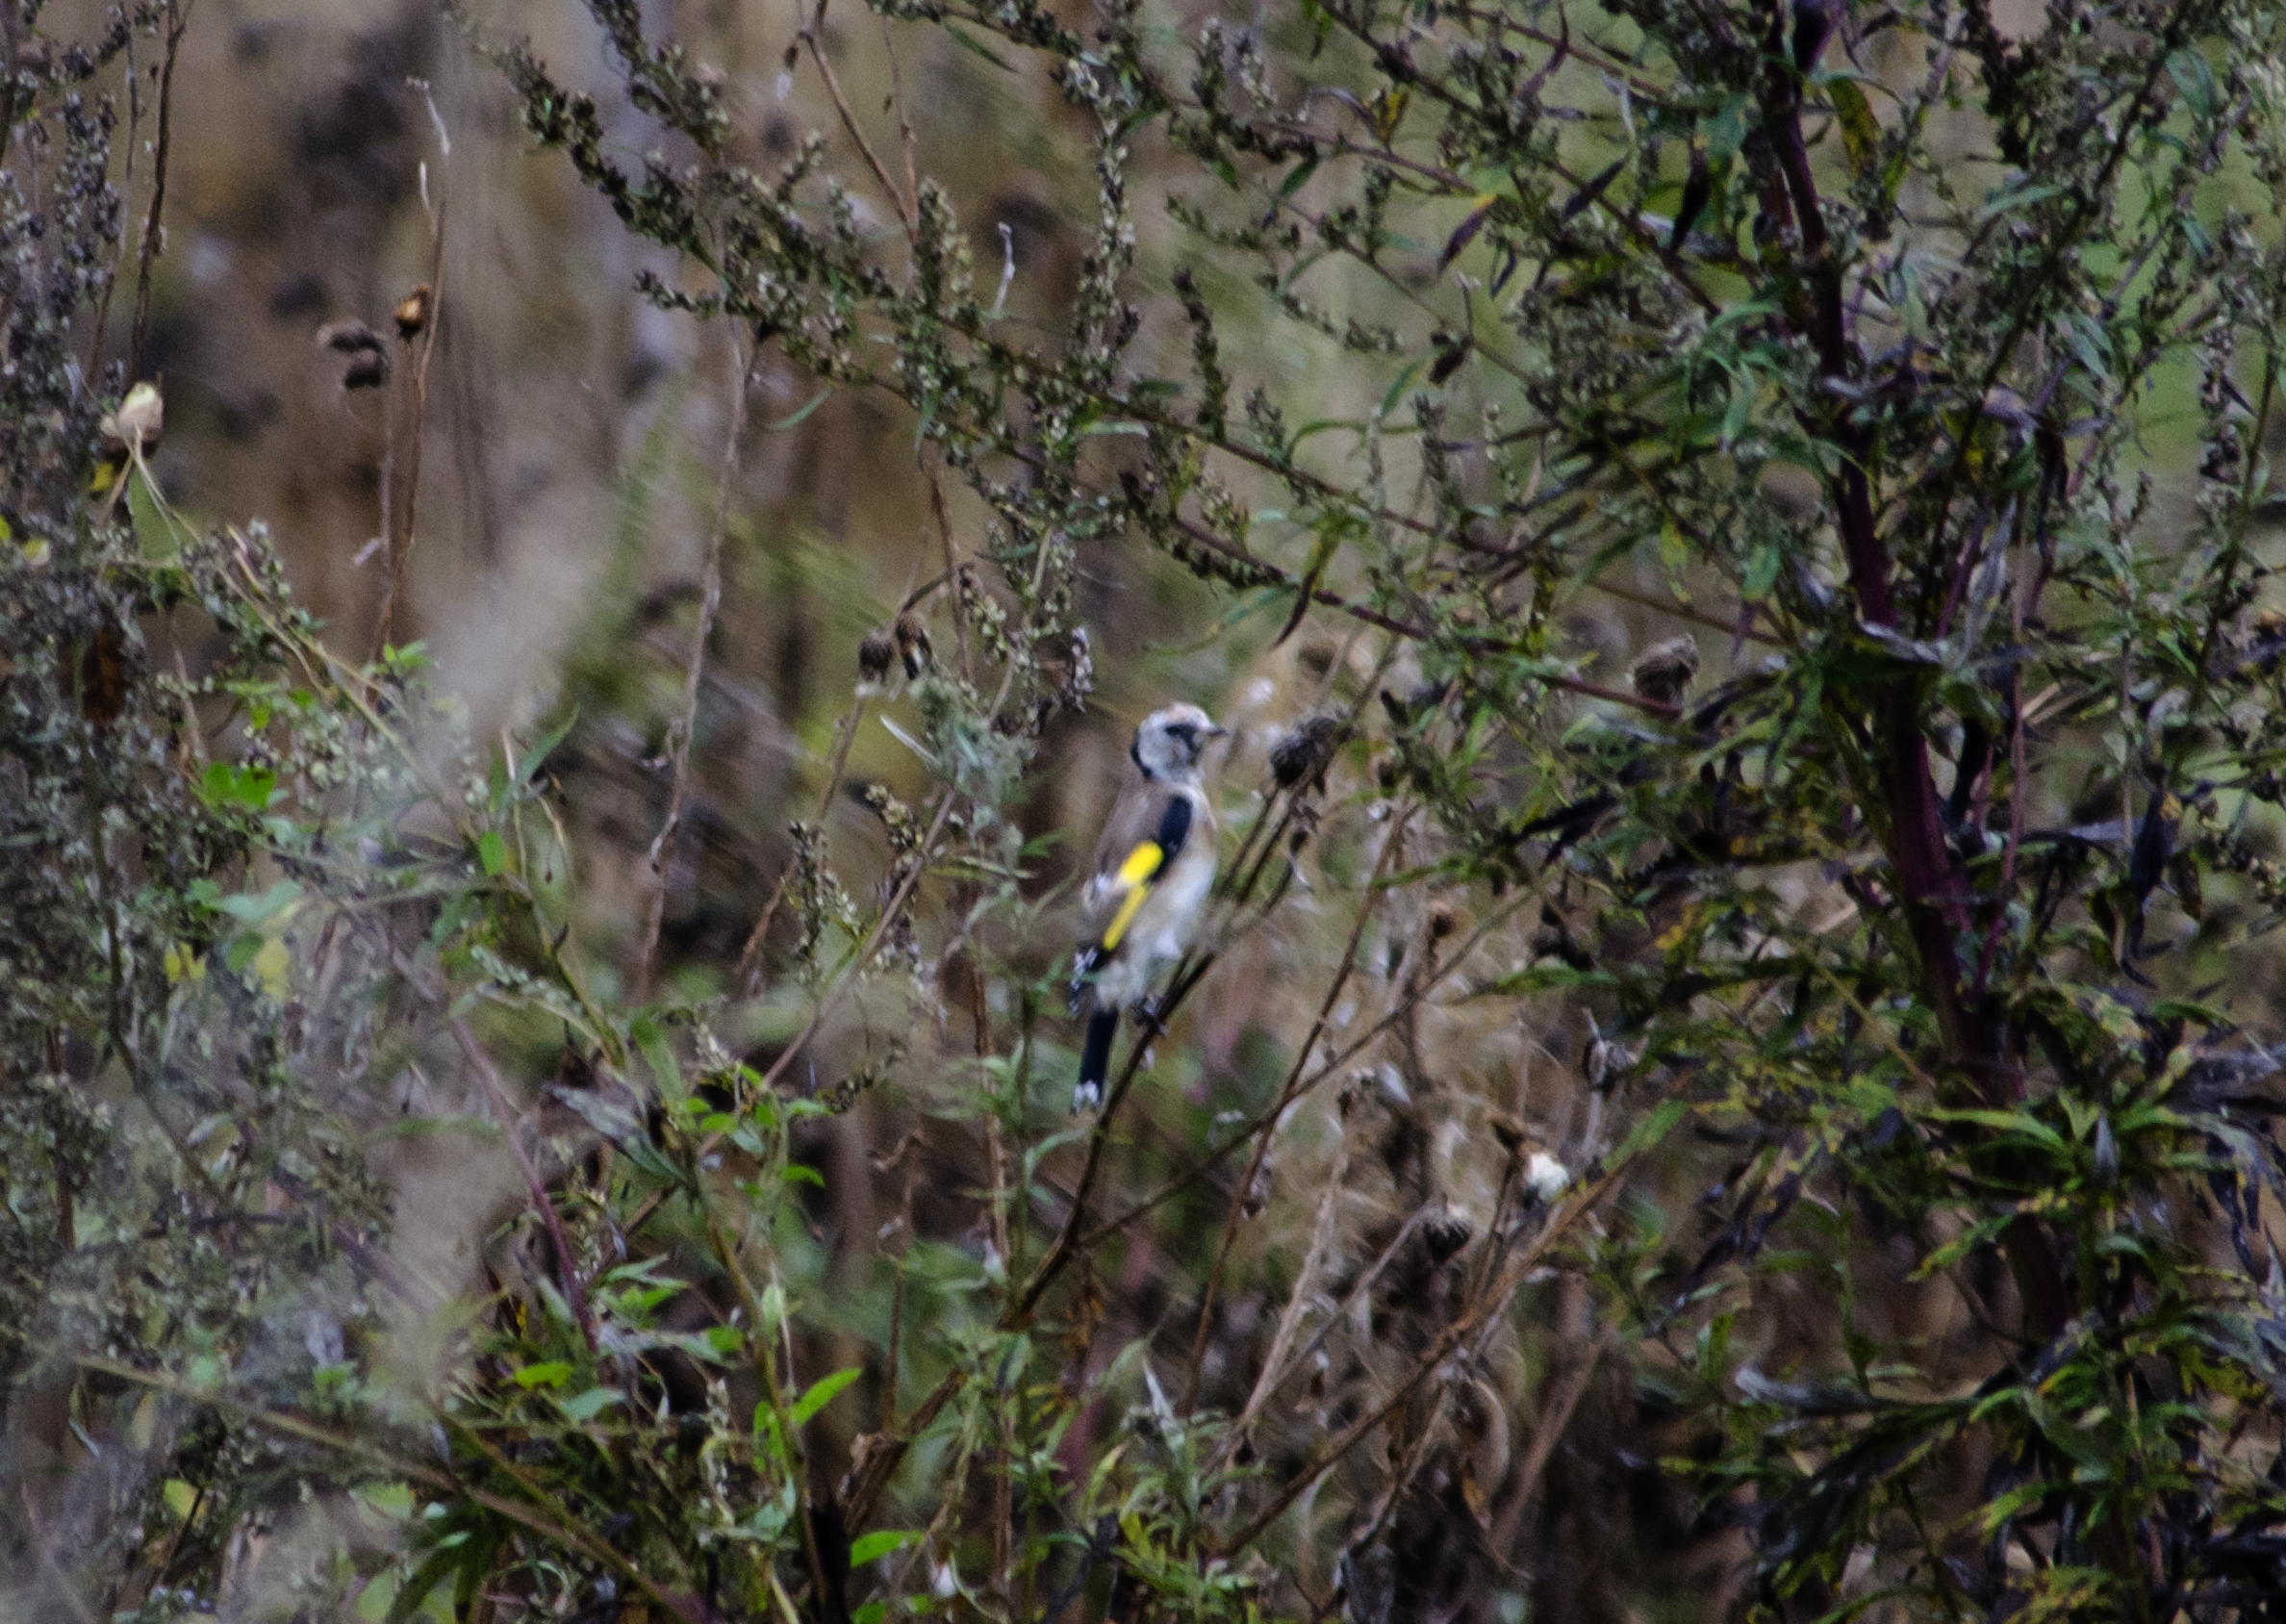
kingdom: Animalia
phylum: Chordata
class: Aves
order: Passeriformes
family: Fringillidae
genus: Carduelis
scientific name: Carduelis carduelis
